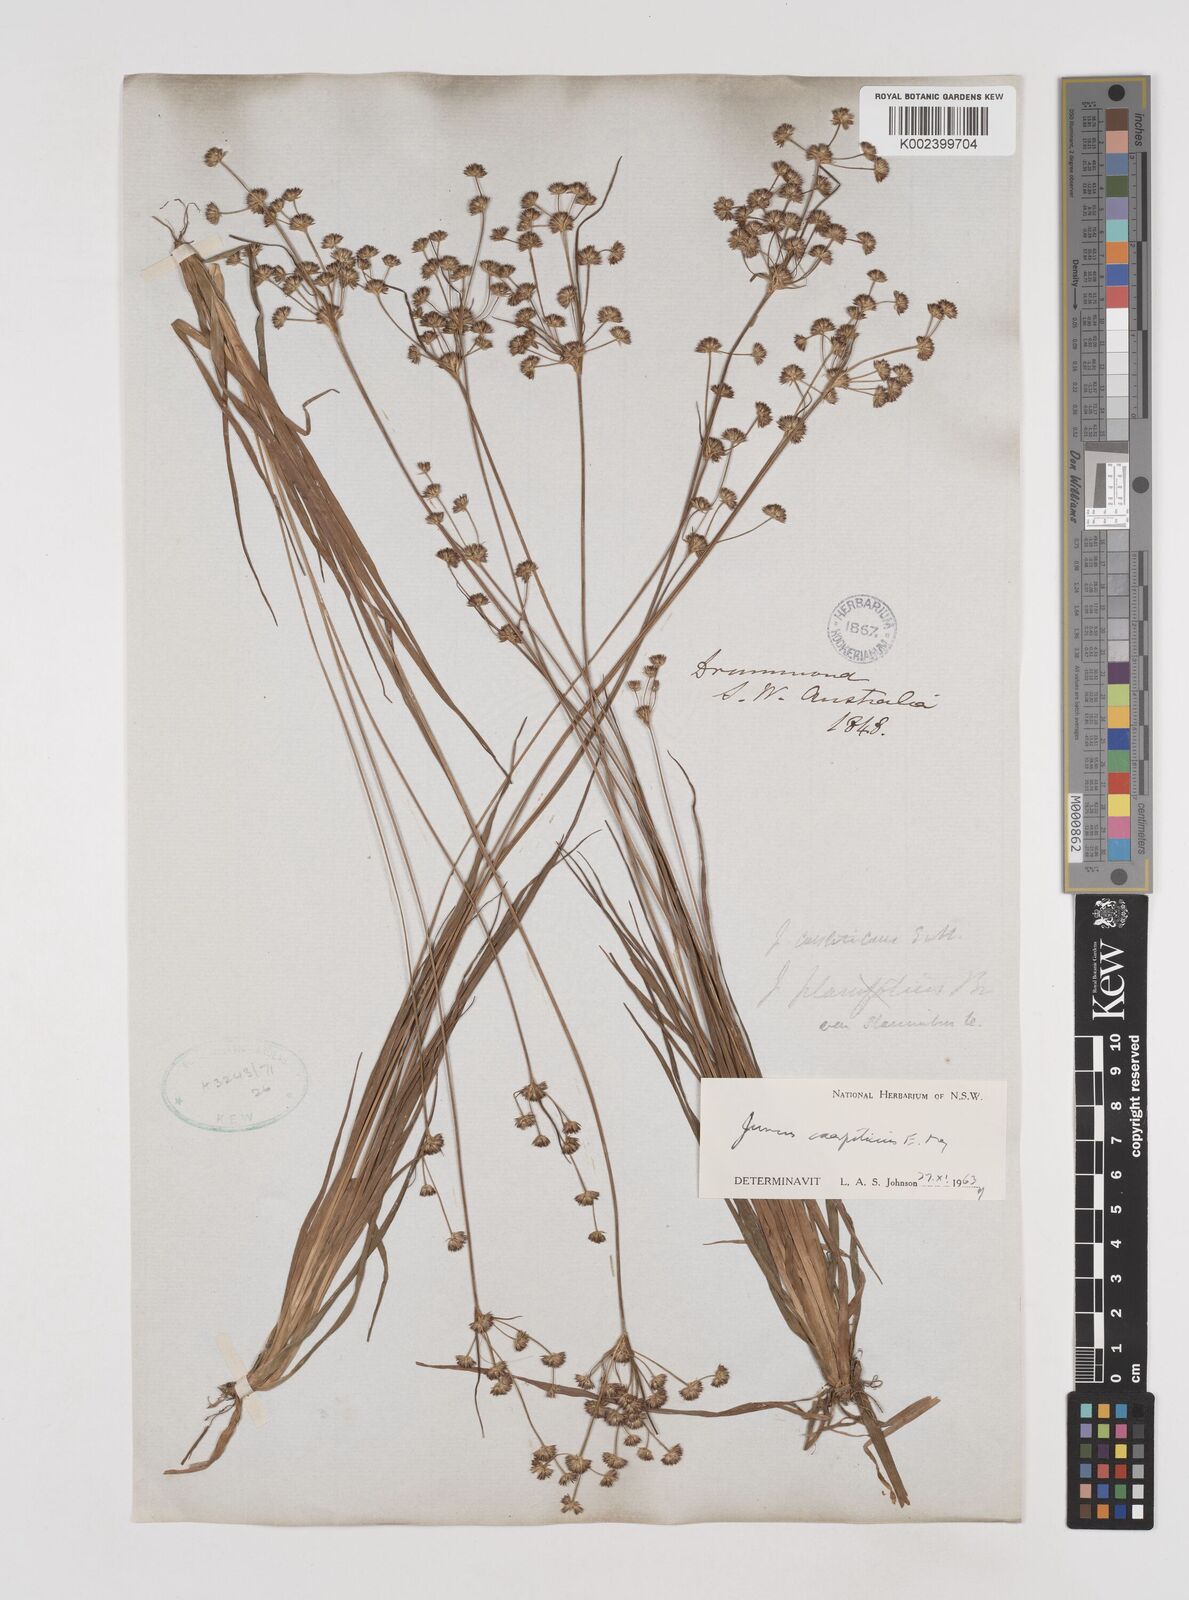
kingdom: Plantae
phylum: Tracheophyta
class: Liliopsida
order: Poales
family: Juncaceae
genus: Juncus
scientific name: Juncus caespiticius
